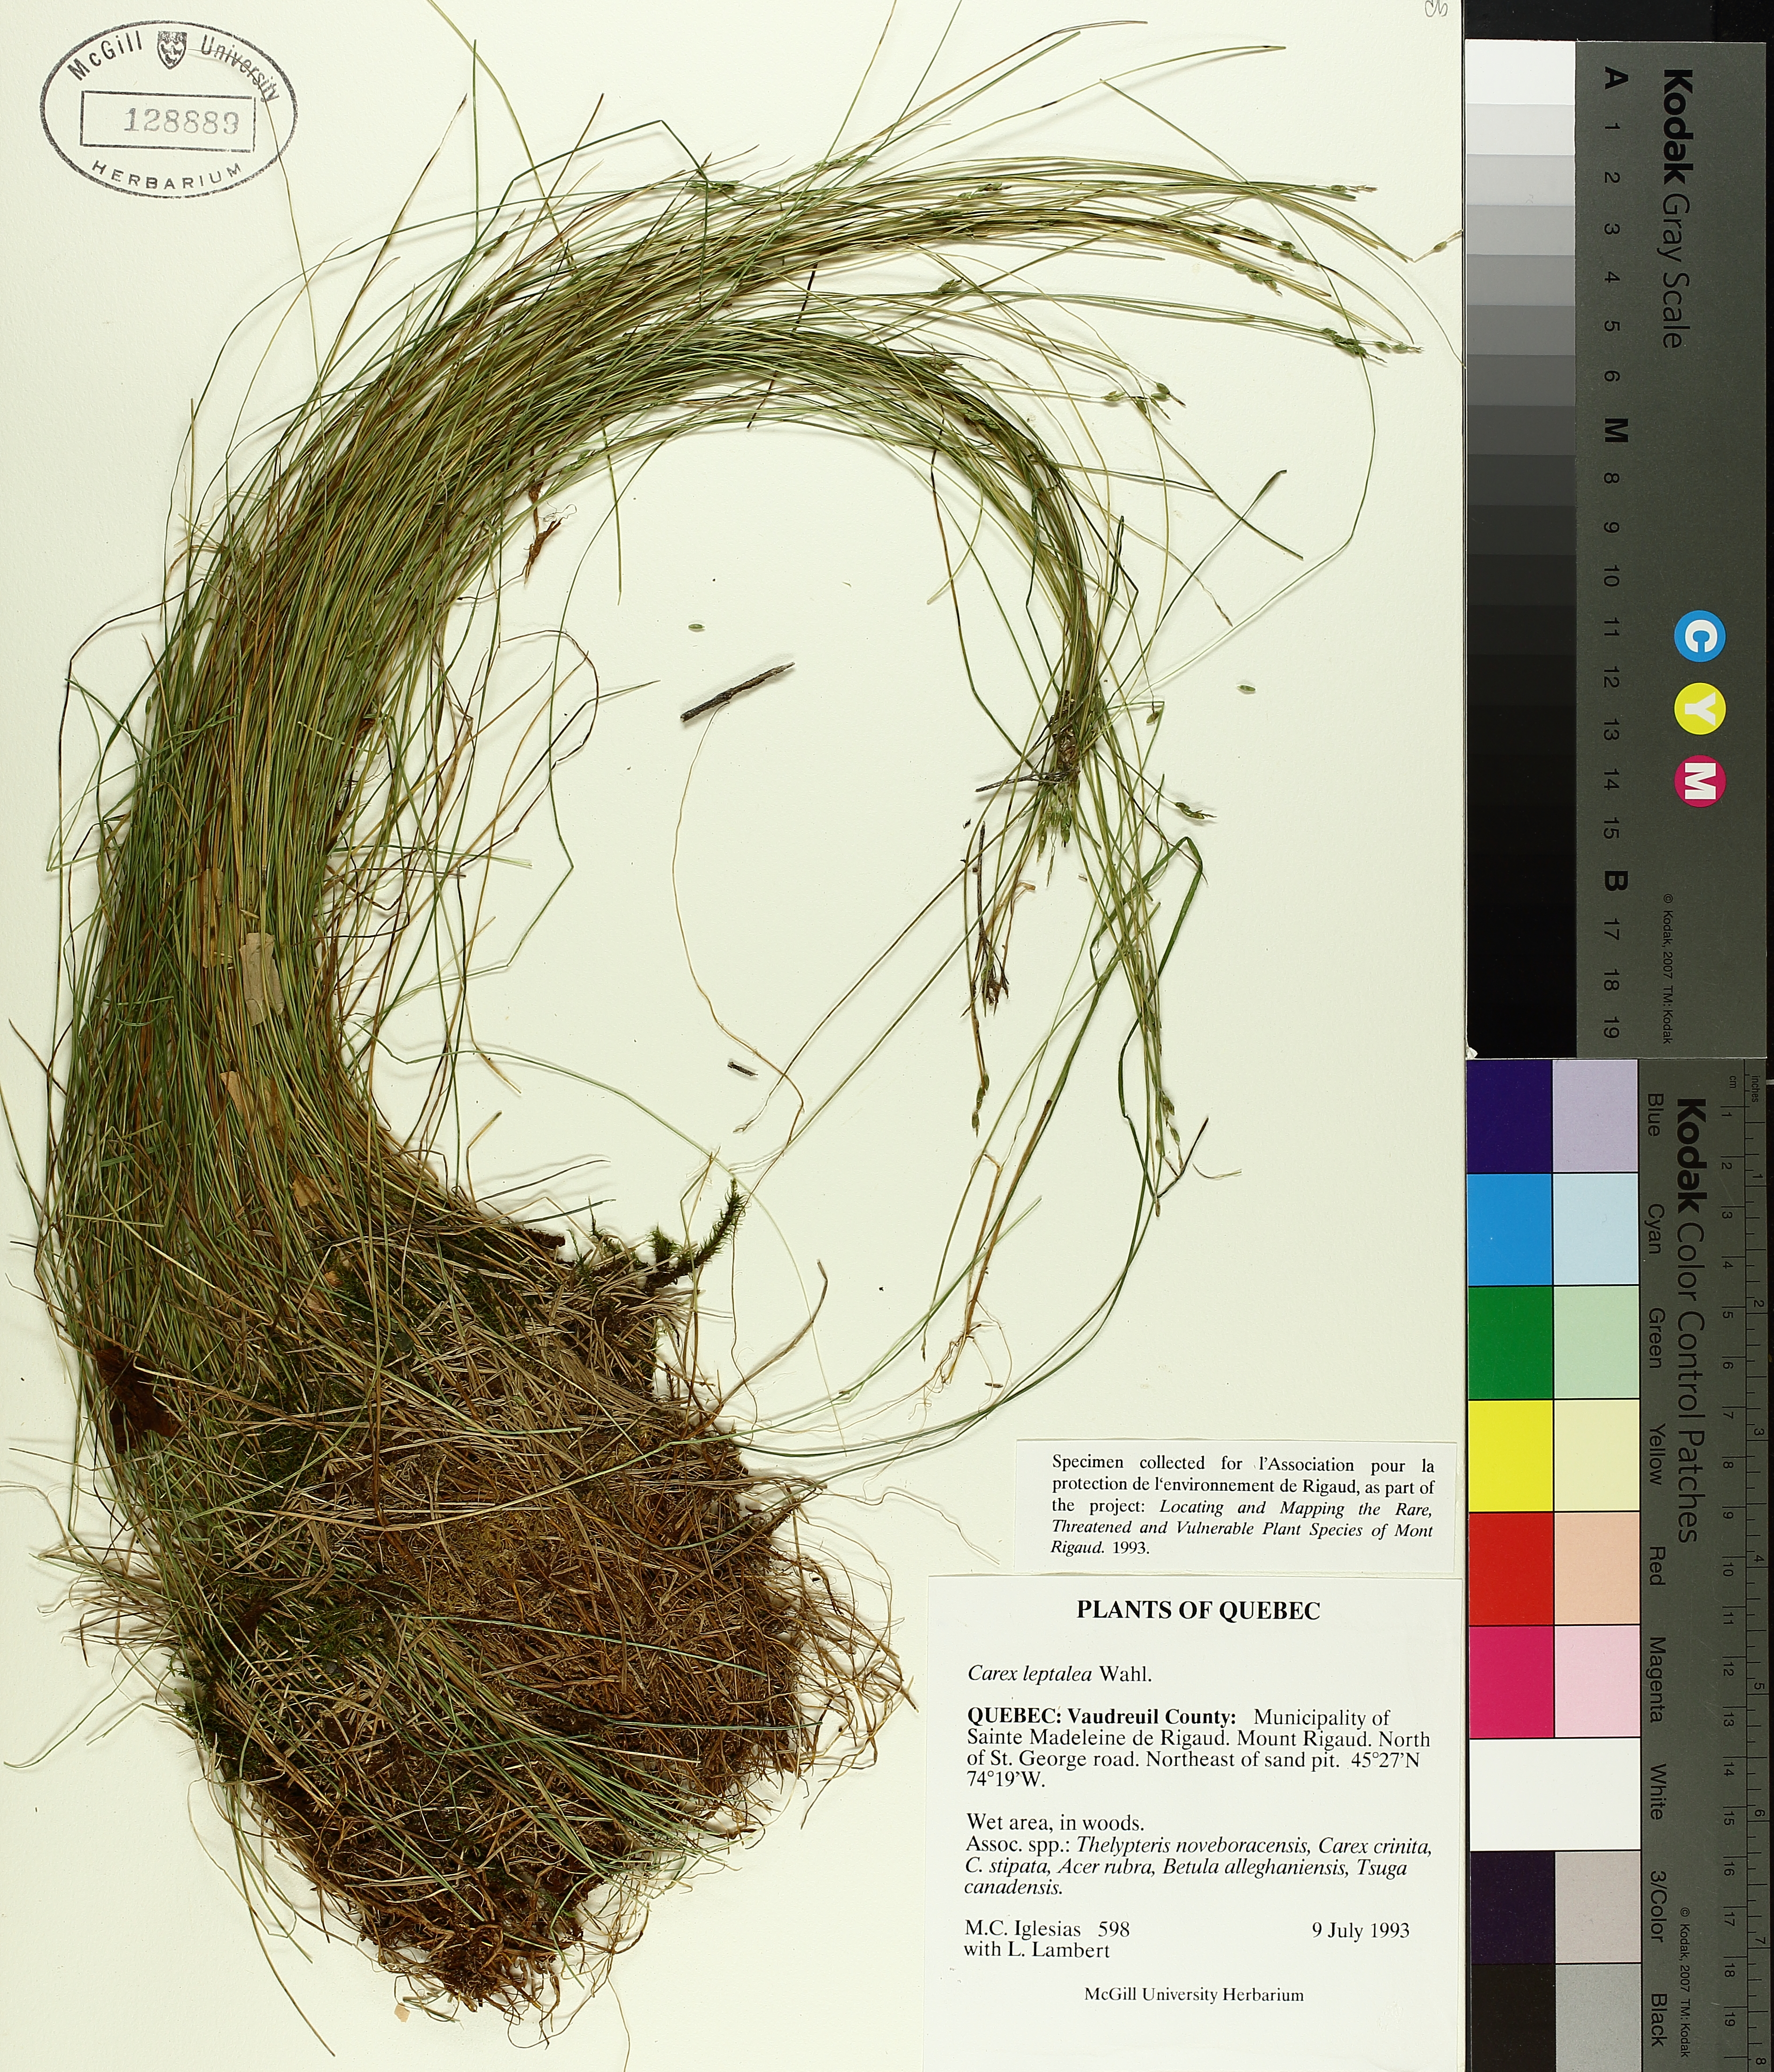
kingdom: Plantae
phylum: Tracheophyta
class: Liliopsida
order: Poales
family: Cyperaceae
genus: Carex
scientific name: Carex leptalea
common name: Bristly-stalked sedge
